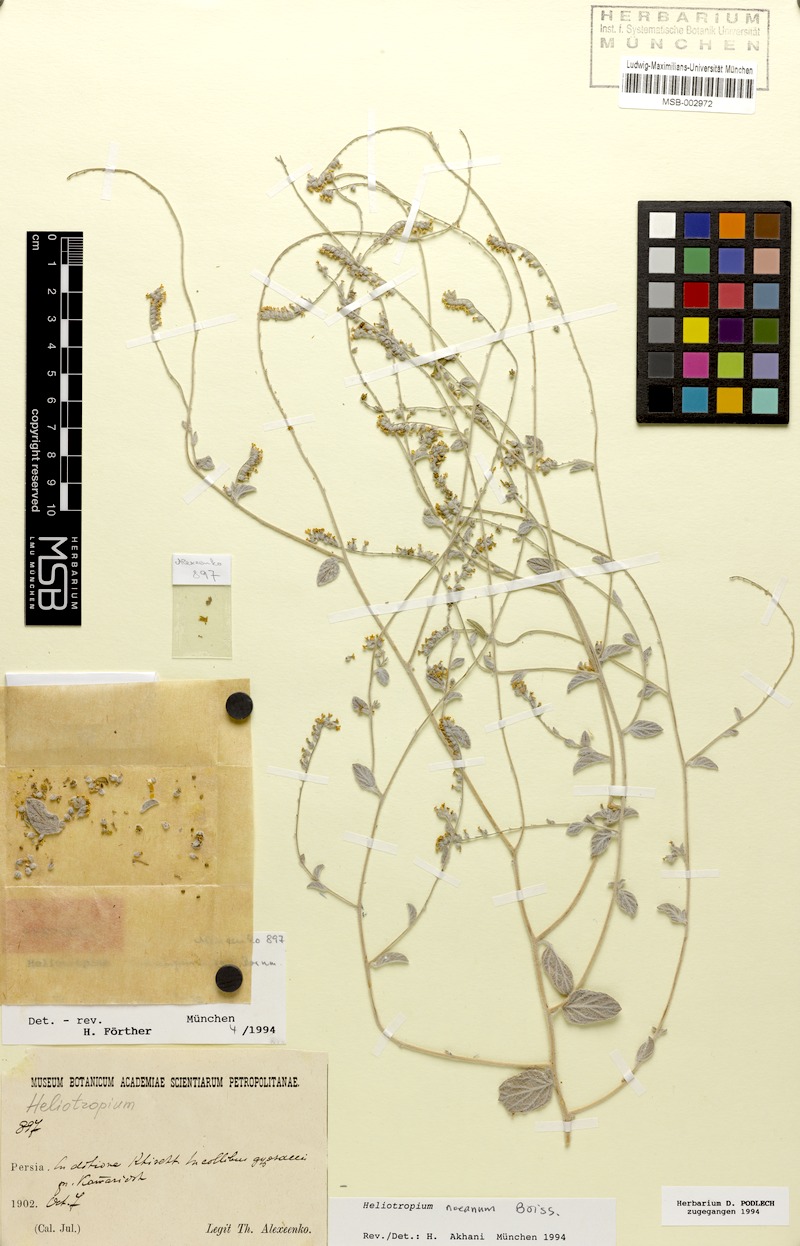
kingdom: Plantae
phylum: Tracheophyta
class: Magnoliopsida
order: Boraginales
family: Heliotropiaceae
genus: Heliotropium
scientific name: Heliotropium noeanum
